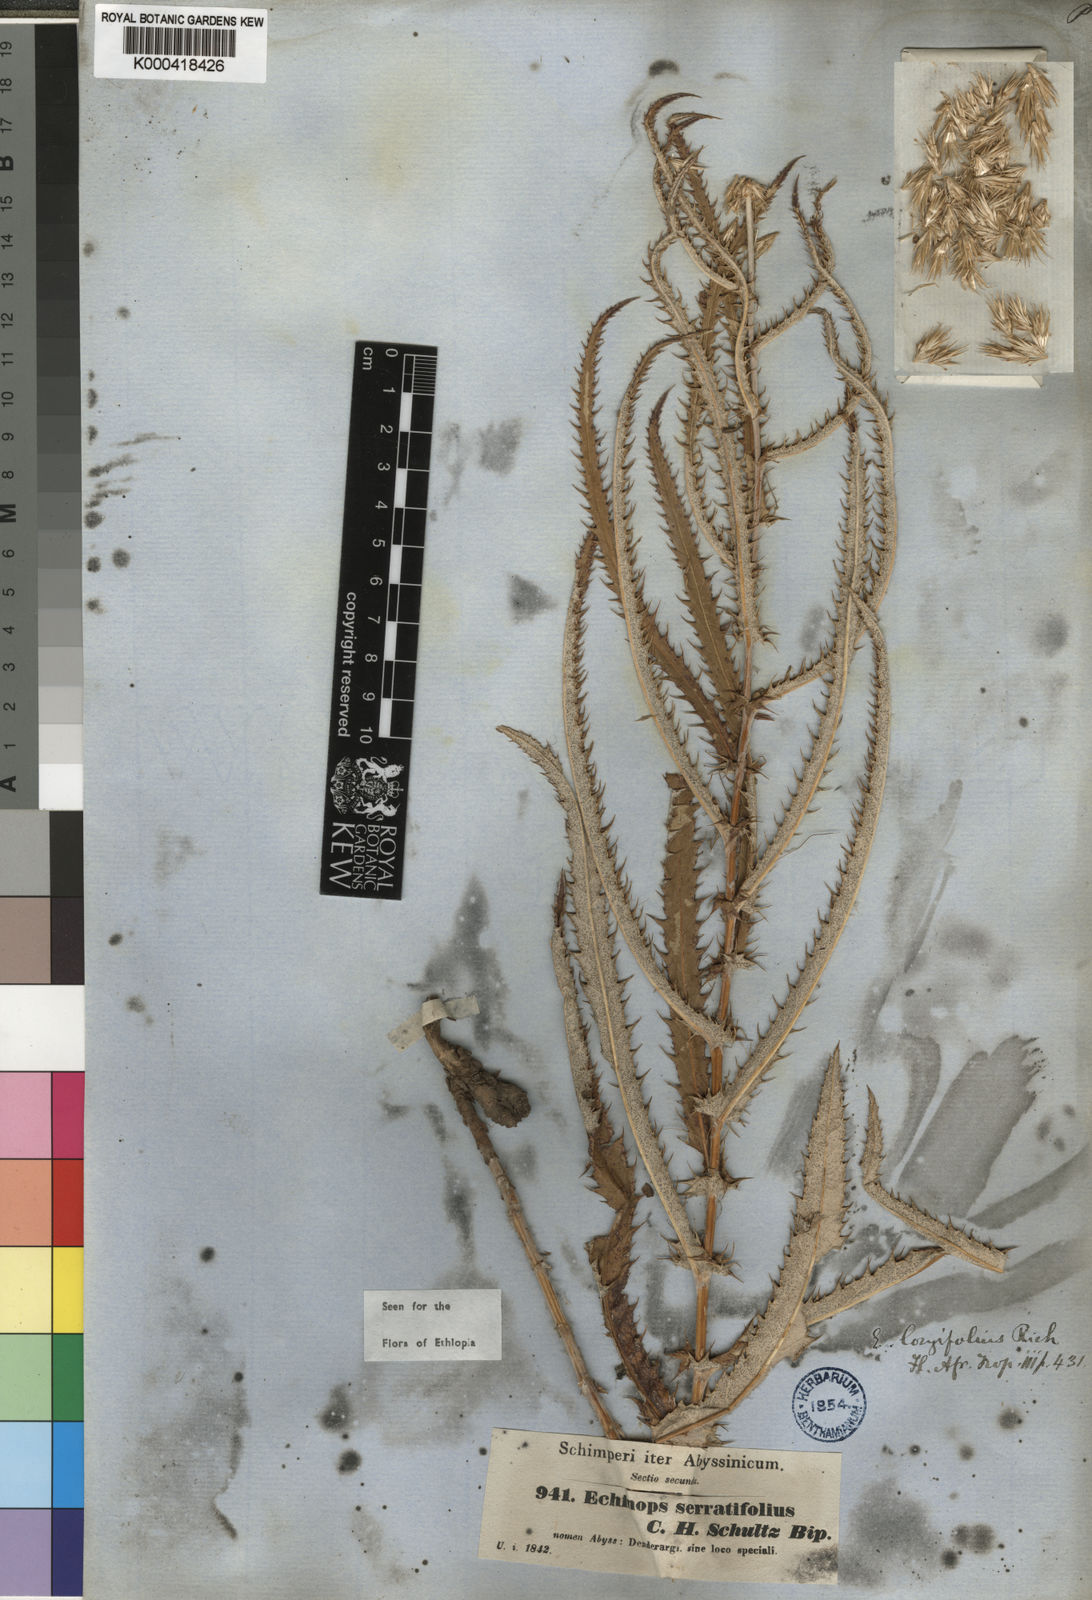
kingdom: Plantae
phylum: Tracheophyta
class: Magnoliopsida
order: Asterales
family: Asteraceae
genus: Echinops
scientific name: Echinops longifolius
